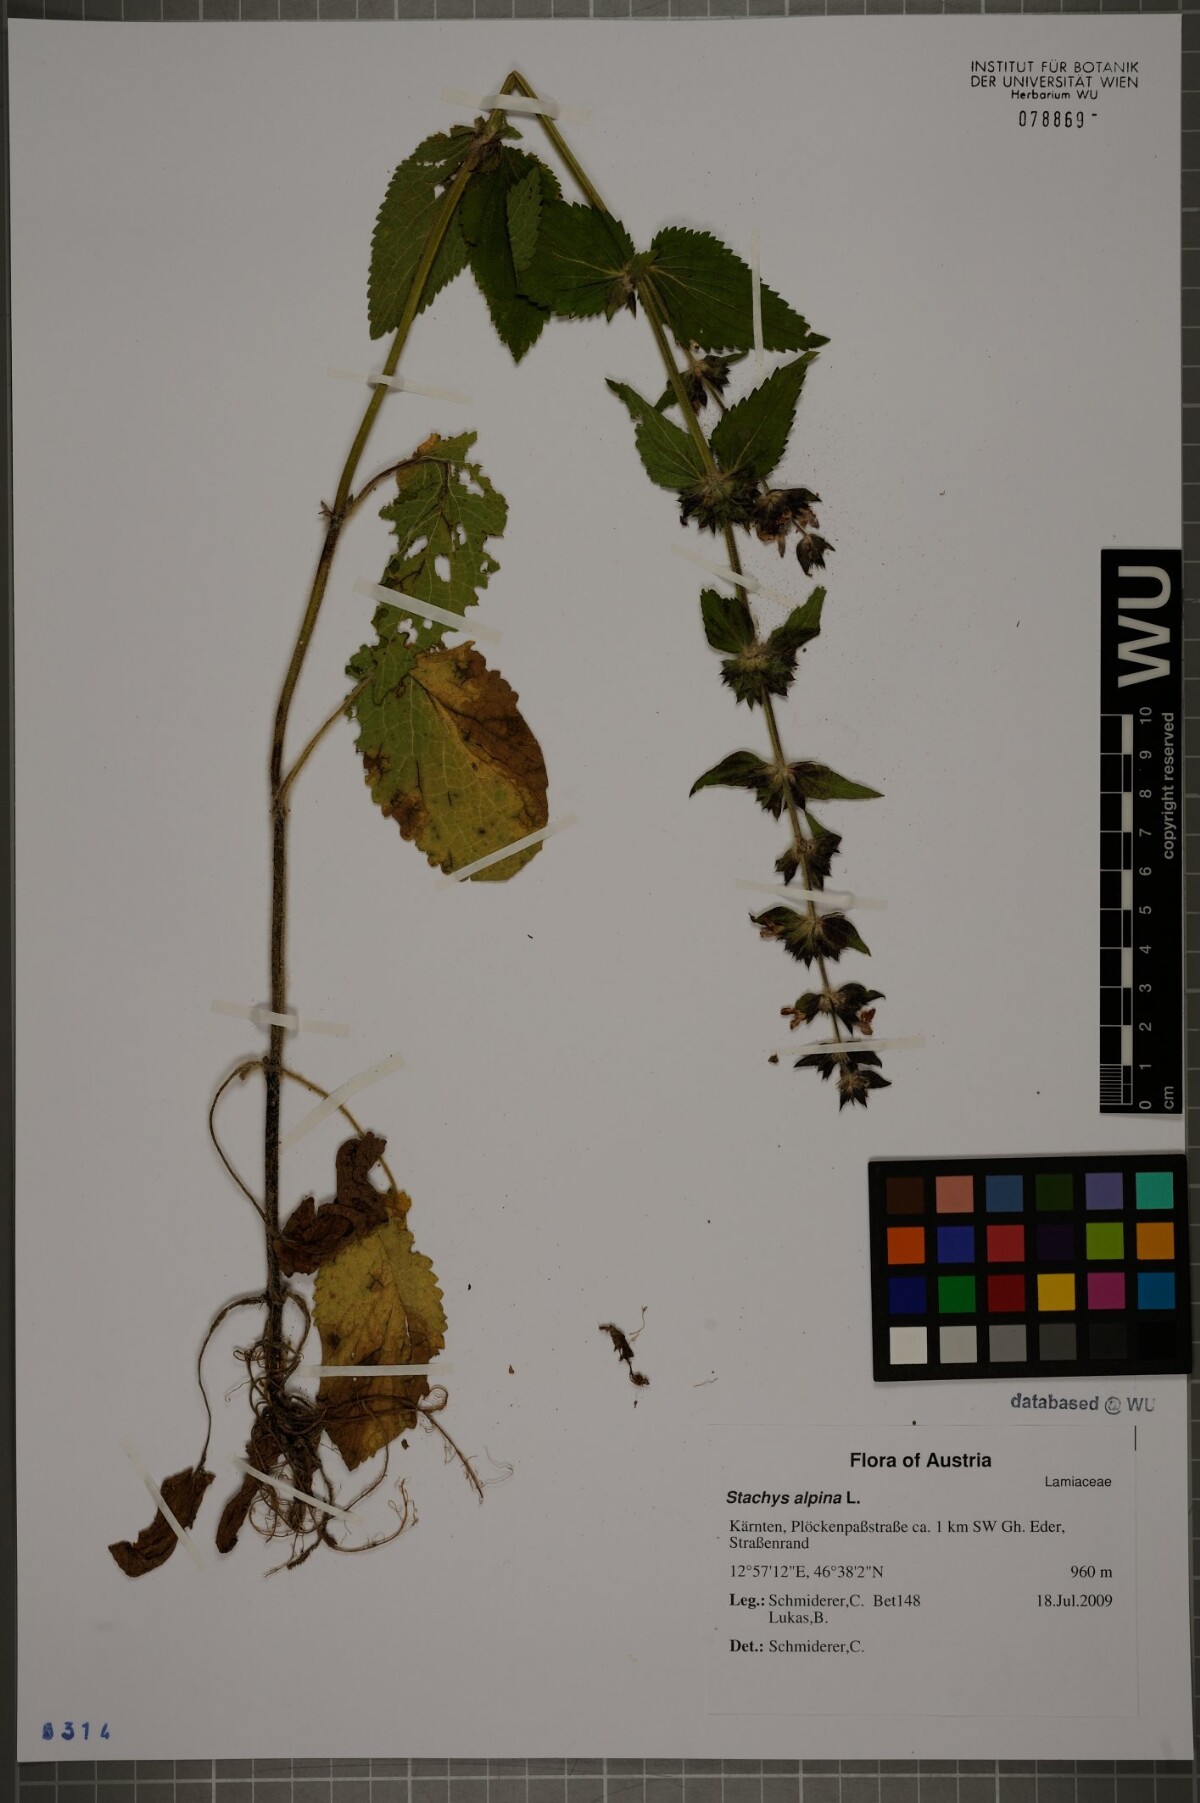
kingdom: Plantae
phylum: Tracheophyta
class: Magnoliopsida
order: Lamiales
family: Lamiaceae
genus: Stachys
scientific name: Stachys alpina
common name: Limestone woundwort
